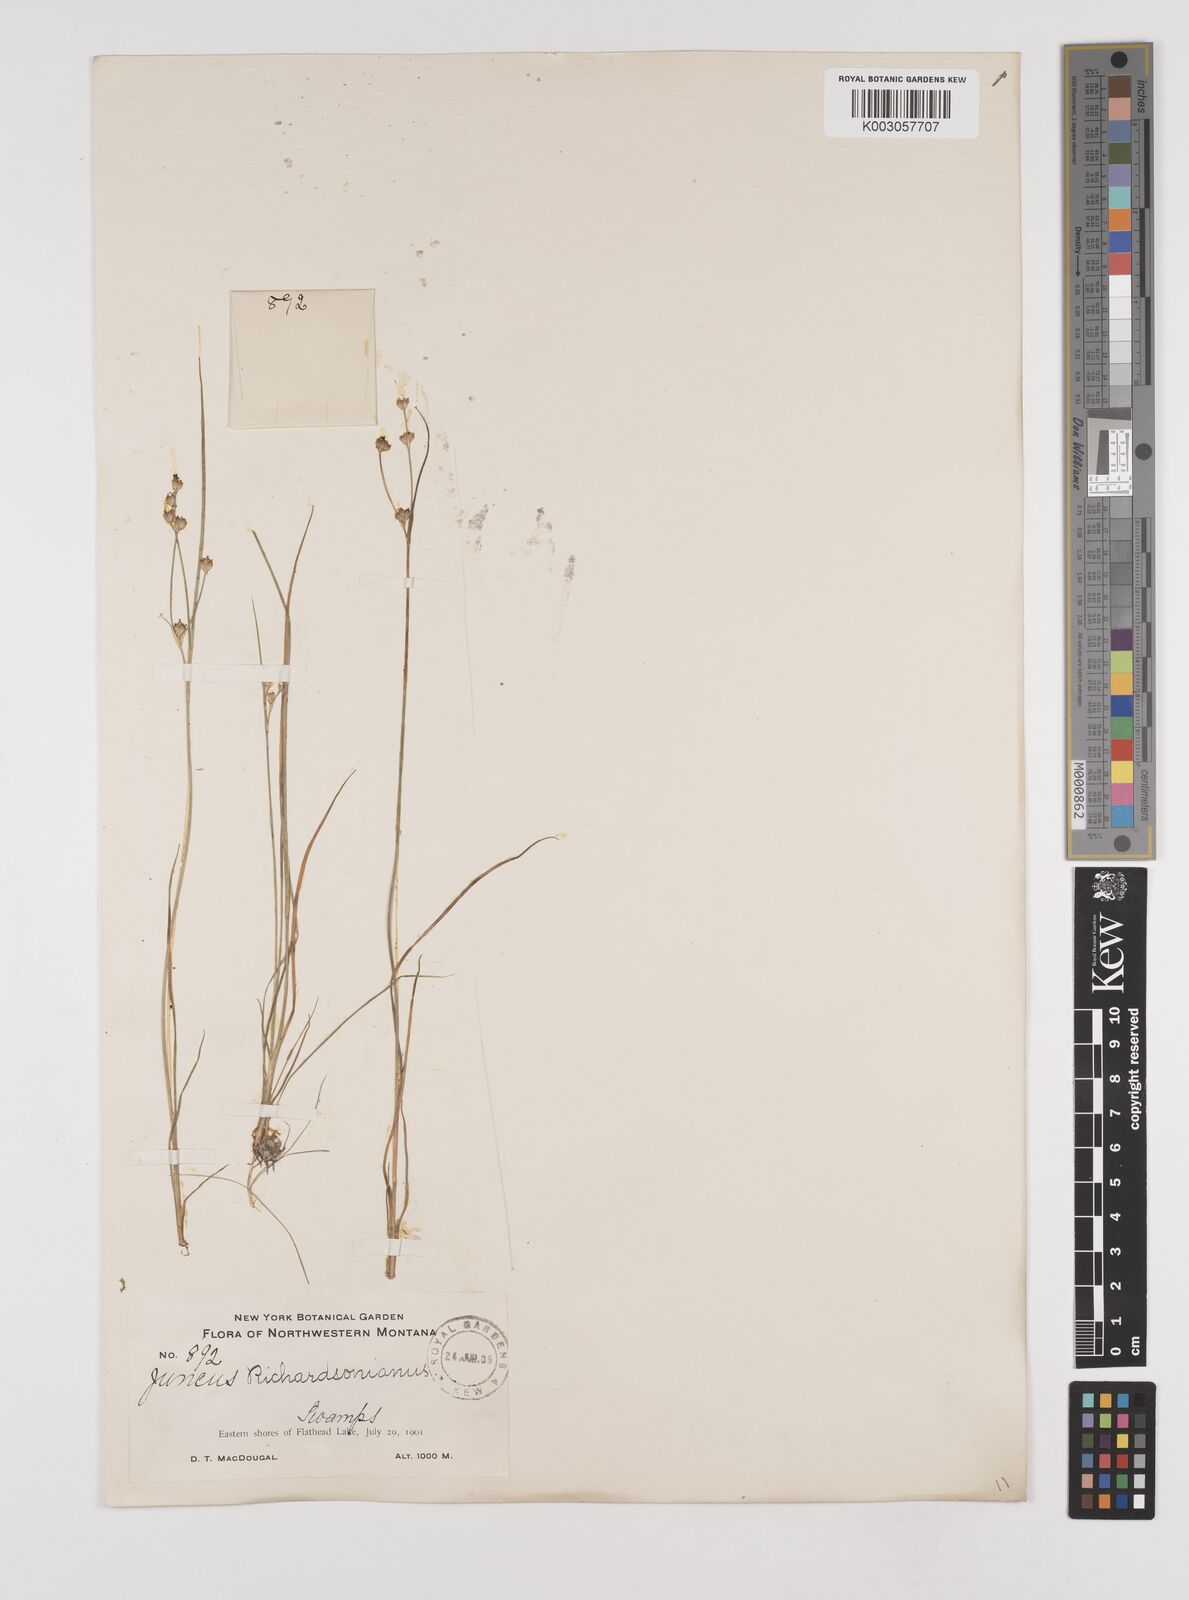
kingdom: Plantae
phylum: Tracheophyta
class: Liliopsida
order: Poales
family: Juncaceae
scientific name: Juncaceae
